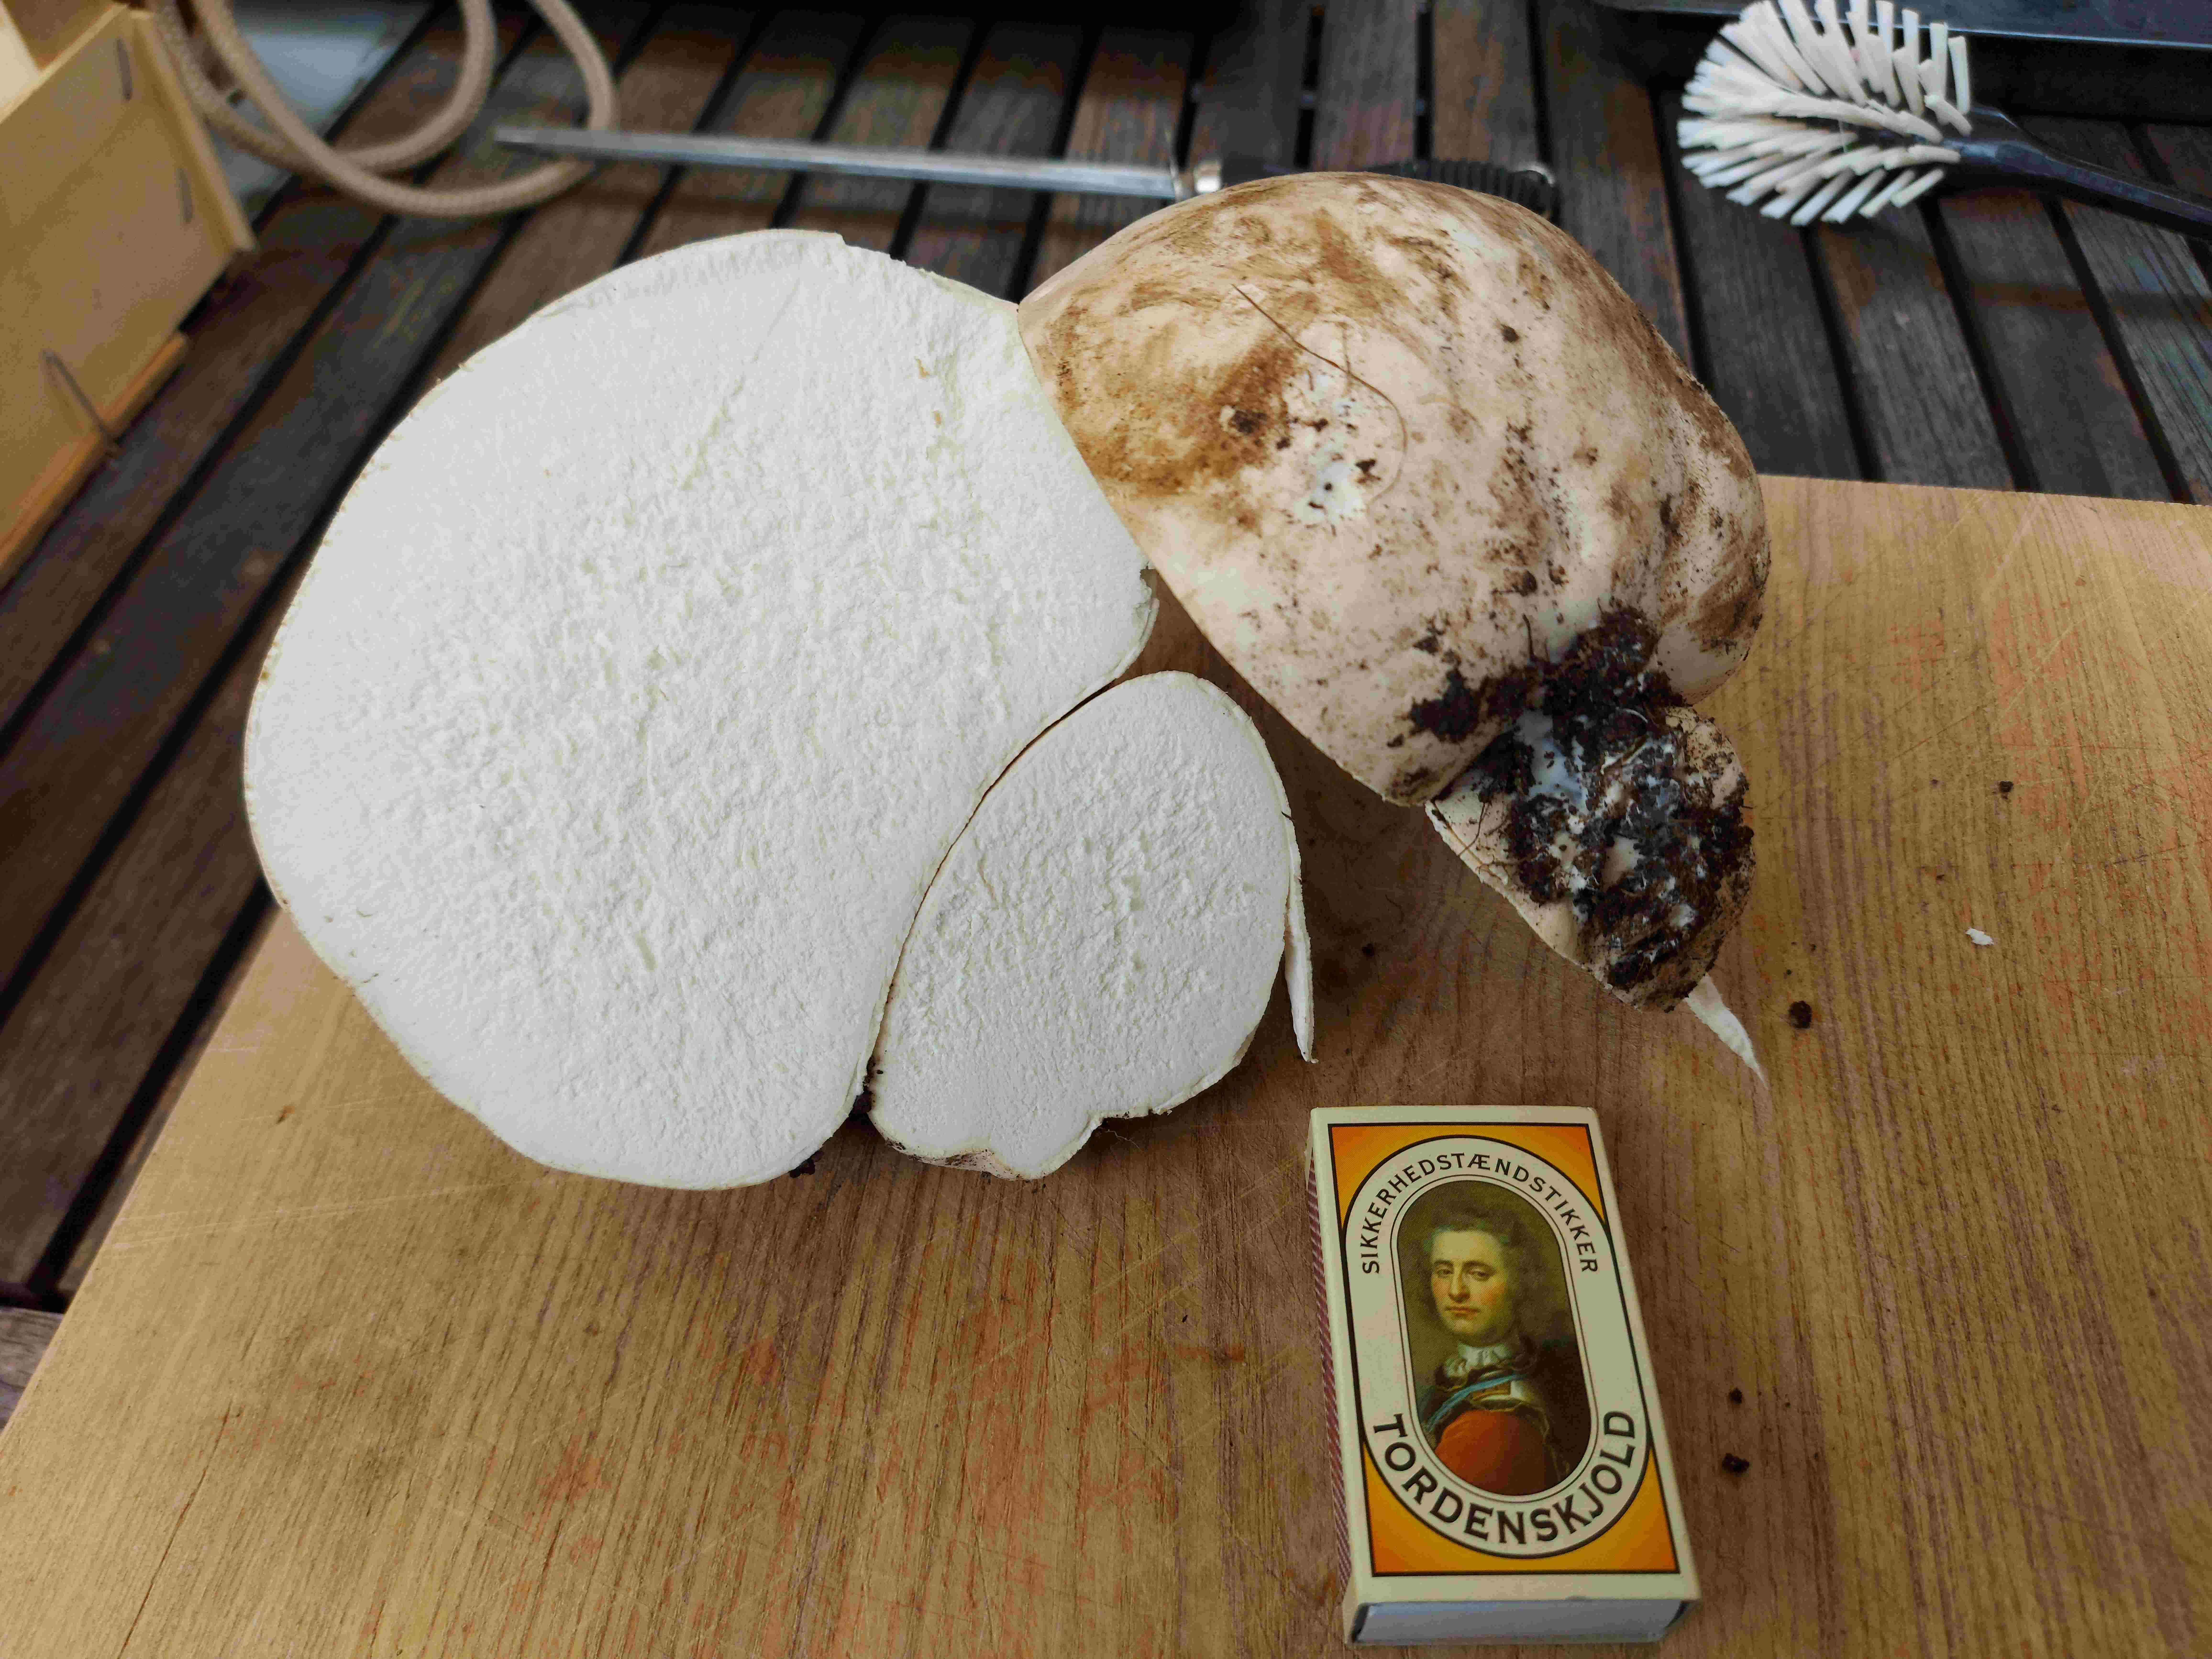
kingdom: Fungi
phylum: Basidiomycota
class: Agaricomycetes
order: Agaricales
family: Lycoperdaceae
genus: Calvatia
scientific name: Calvatia gigantea
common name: kæmpestøvbold
